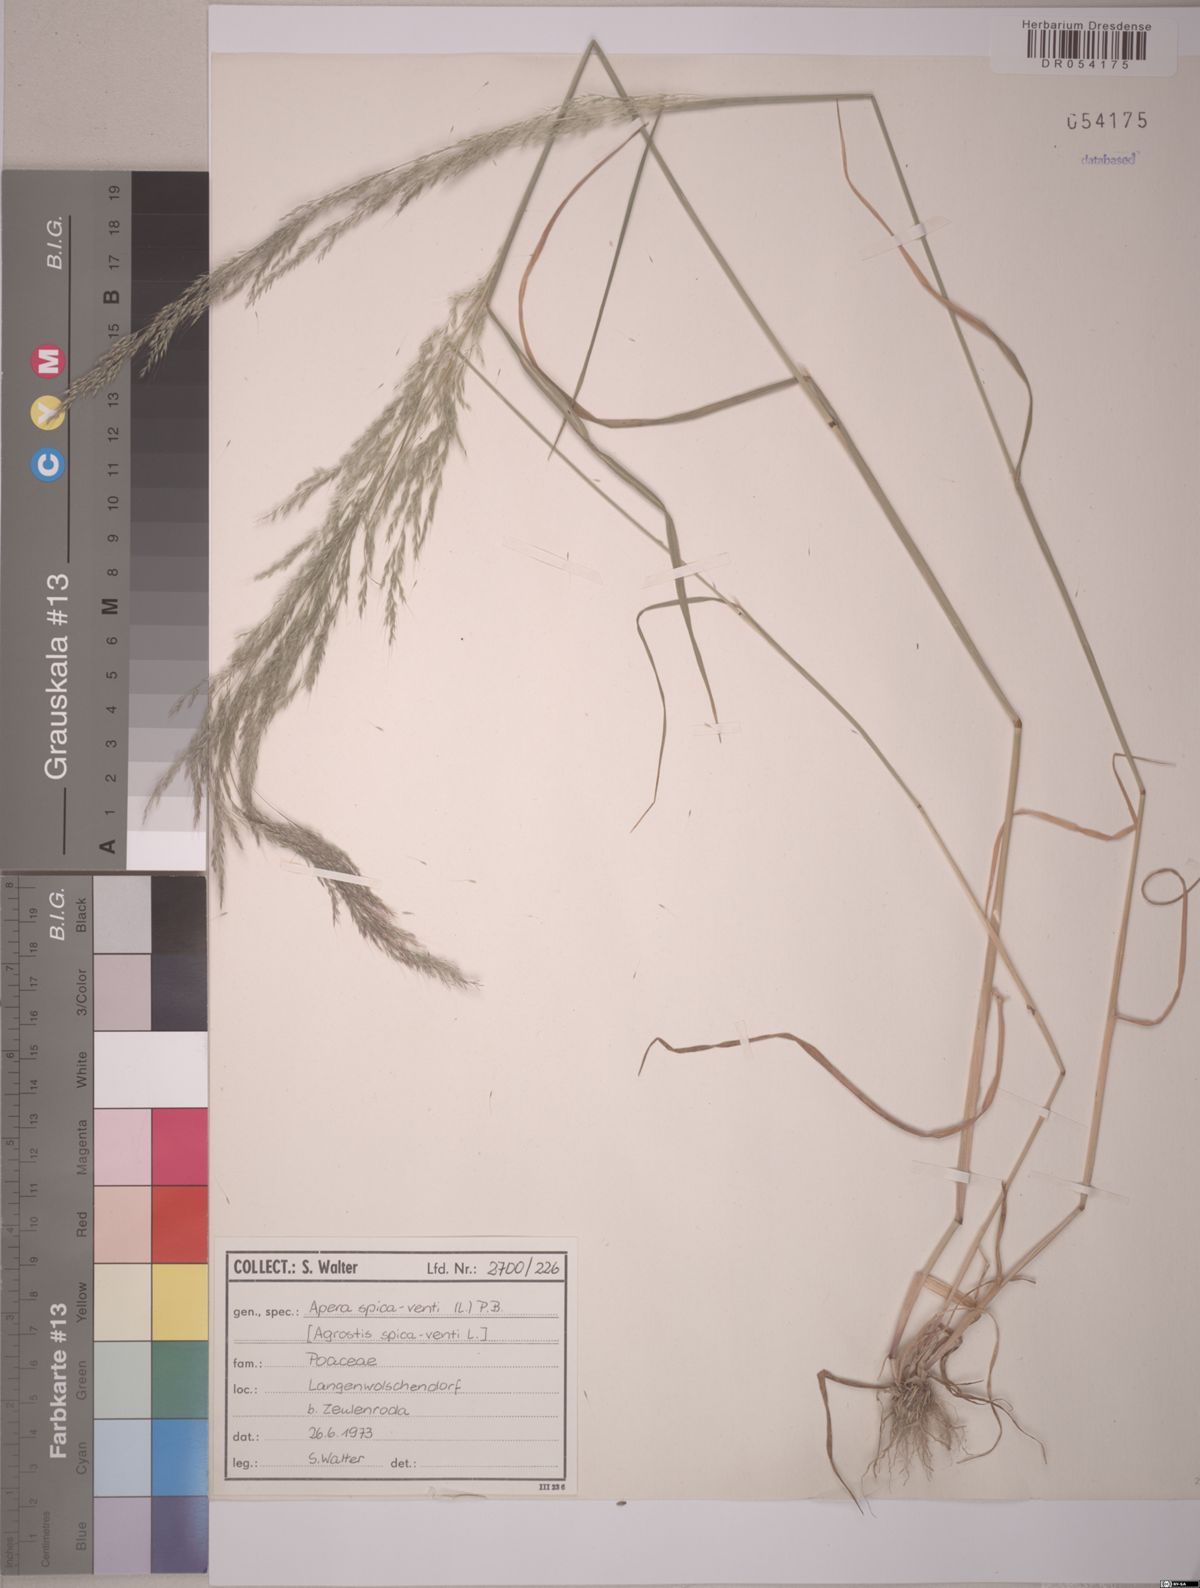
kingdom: Plantae
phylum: Tracheophyta
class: Liliopsida
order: Poales
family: Poaceae
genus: Apera
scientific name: Apera spica-venti
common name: Loose silky-bent
